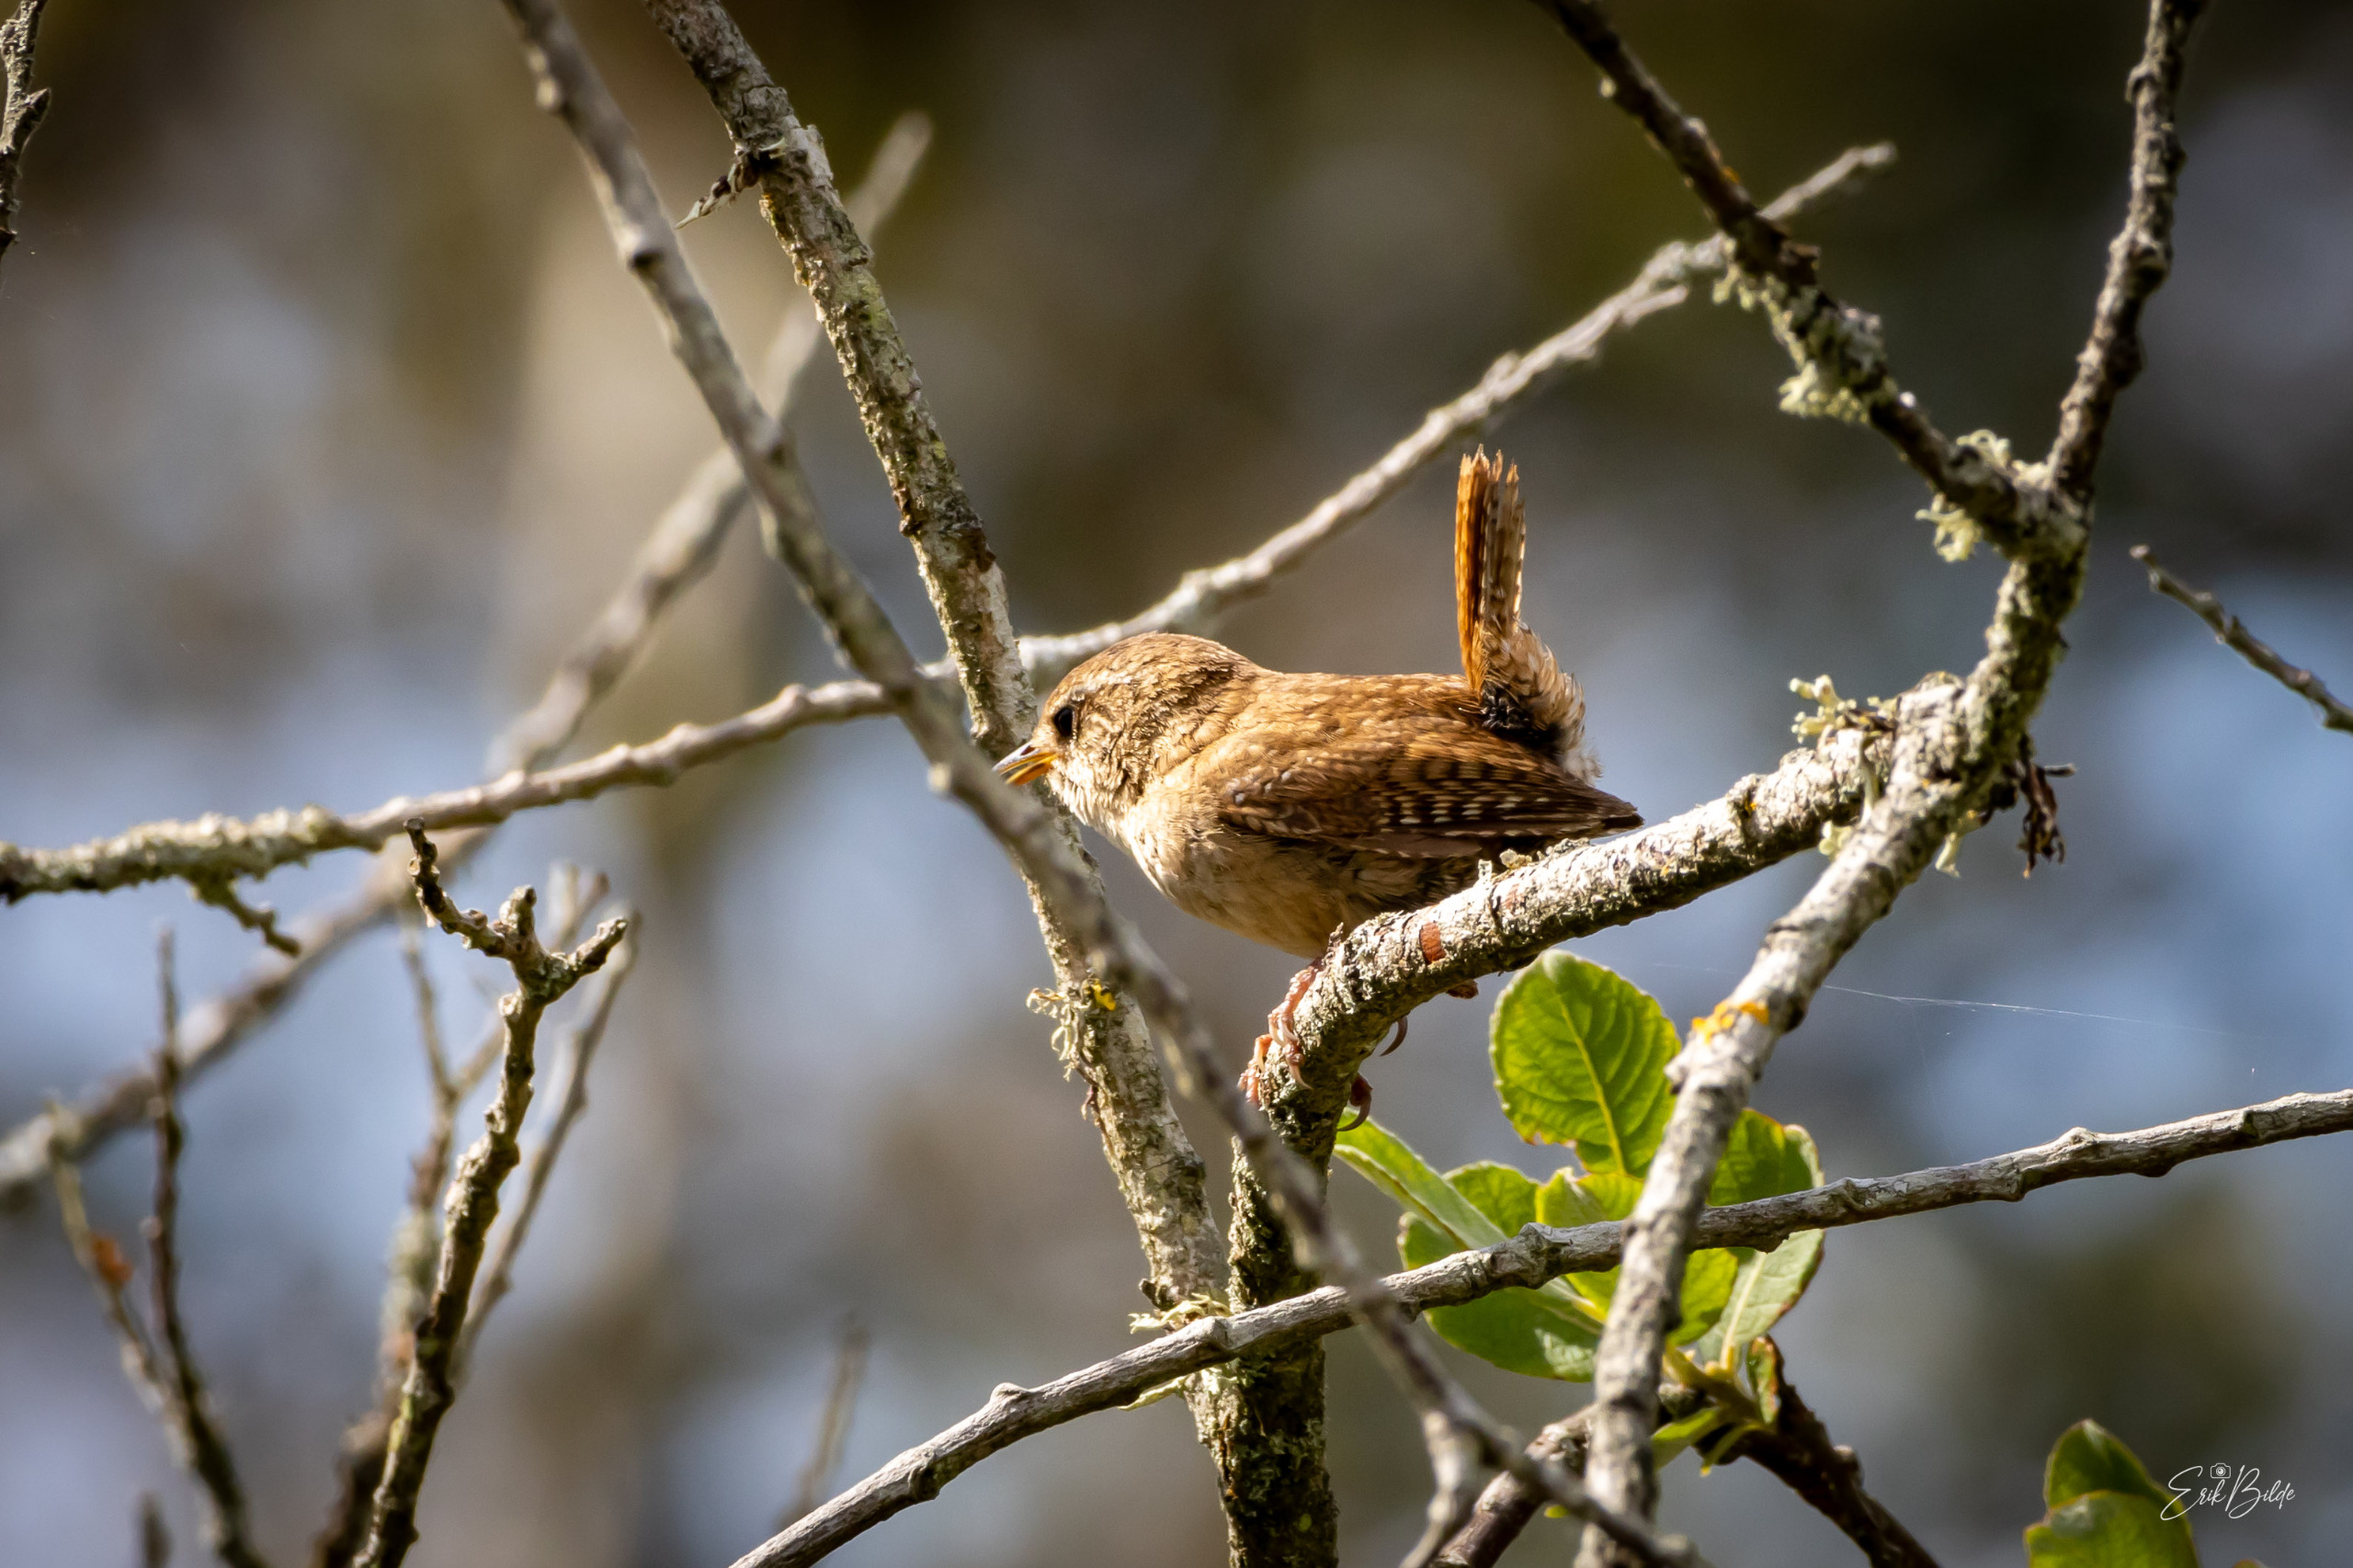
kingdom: Animalia
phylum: Chordata
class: Aves
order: Passeriformes
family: Troglodytidae
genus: Troglodytes
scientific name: Troglodytes troglodytes
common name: Gærdesmutte
